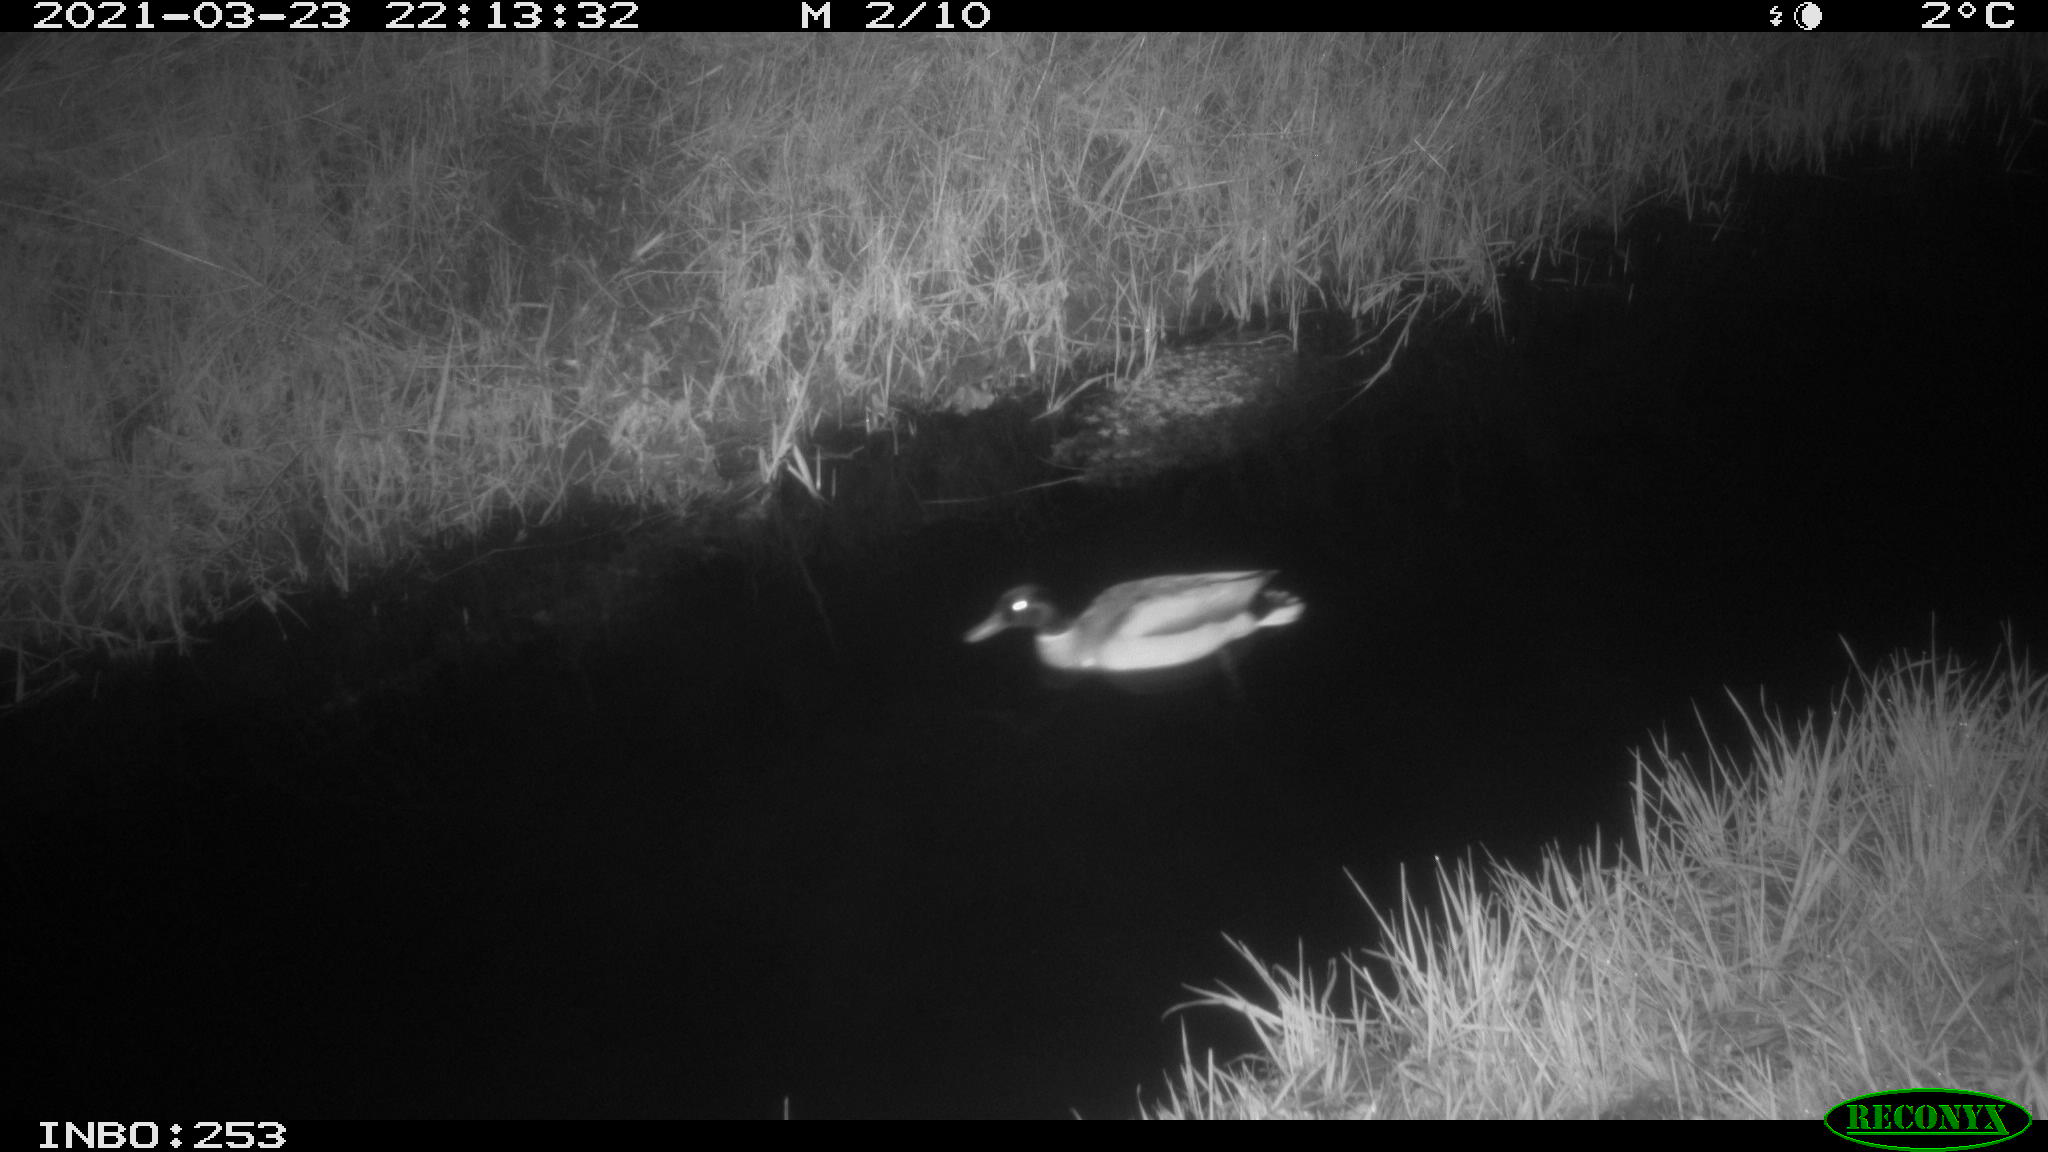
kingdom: Animalia
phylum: Chordata
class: Aves
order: Anseriformes
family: Anatidae
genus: Anas
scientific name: Anas platyrhynchos
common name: Mallard
